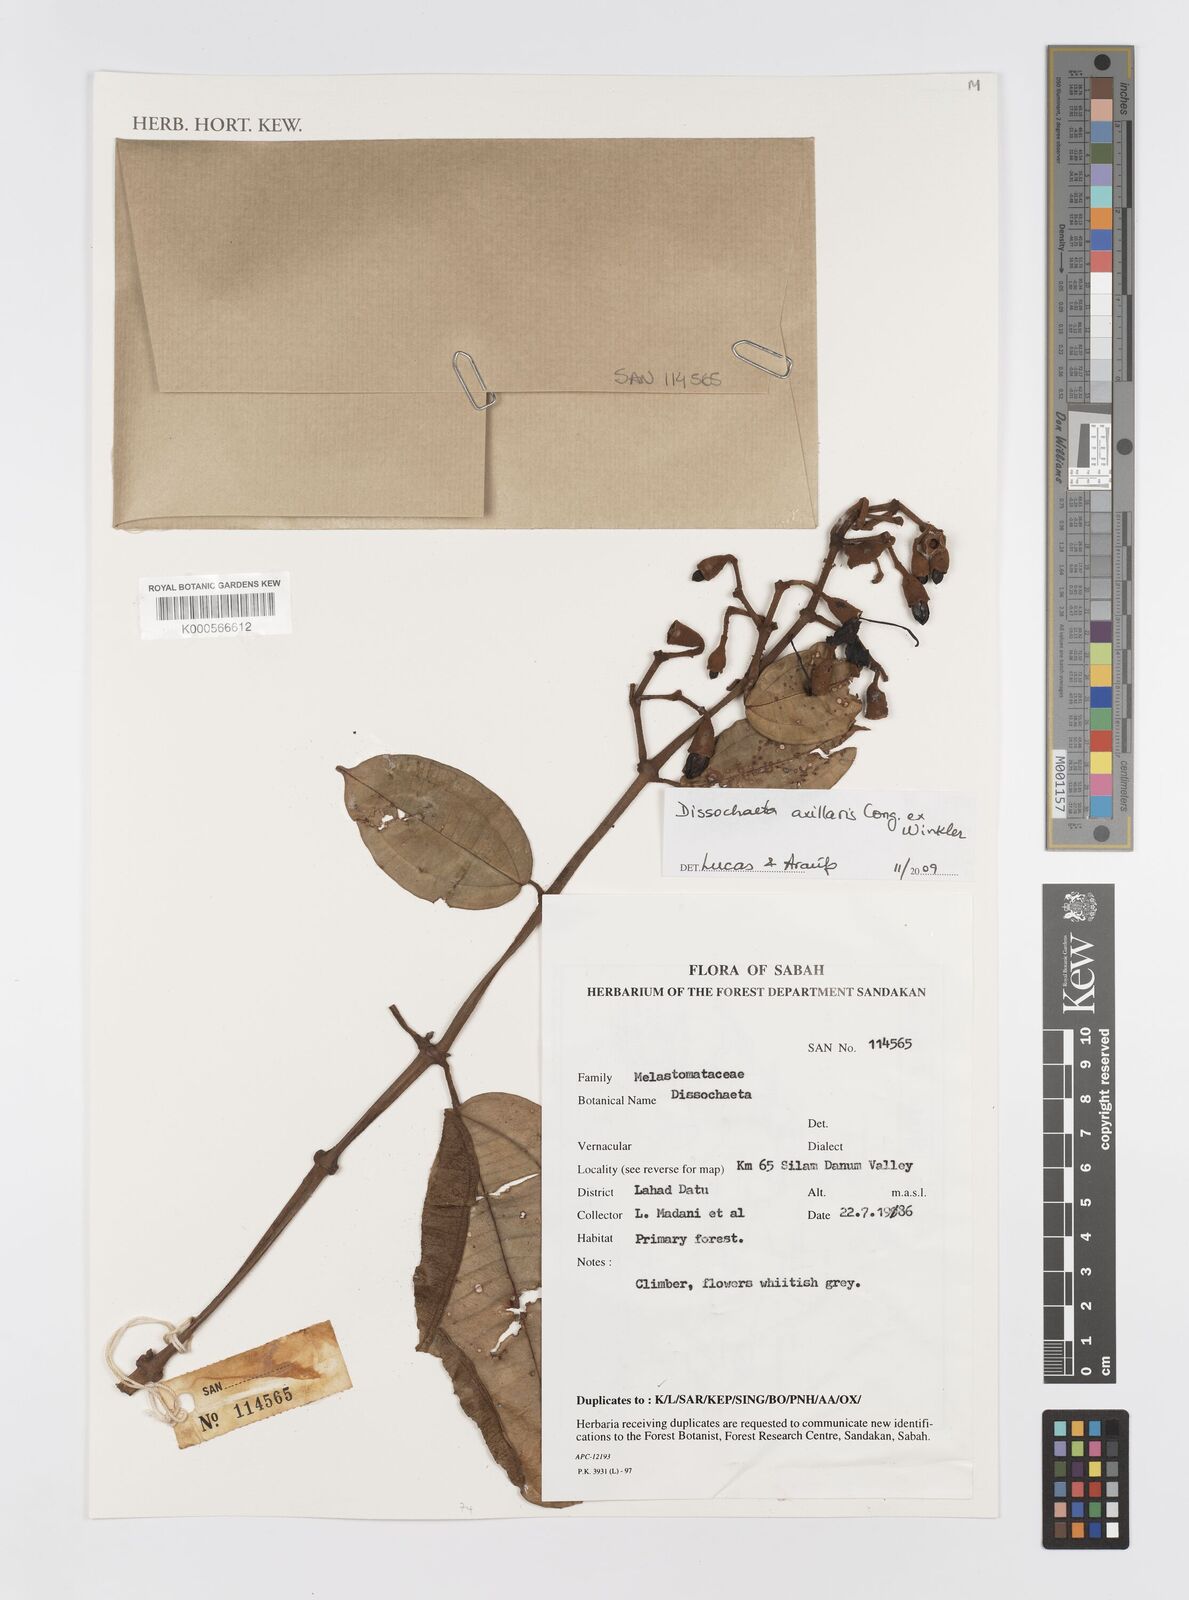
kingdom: Plantae
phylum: Tracheophyta
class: Magnoliopsida
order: Myrtales
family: Melastomataceae
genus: Dissochaeta
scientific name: Dissochaeta
